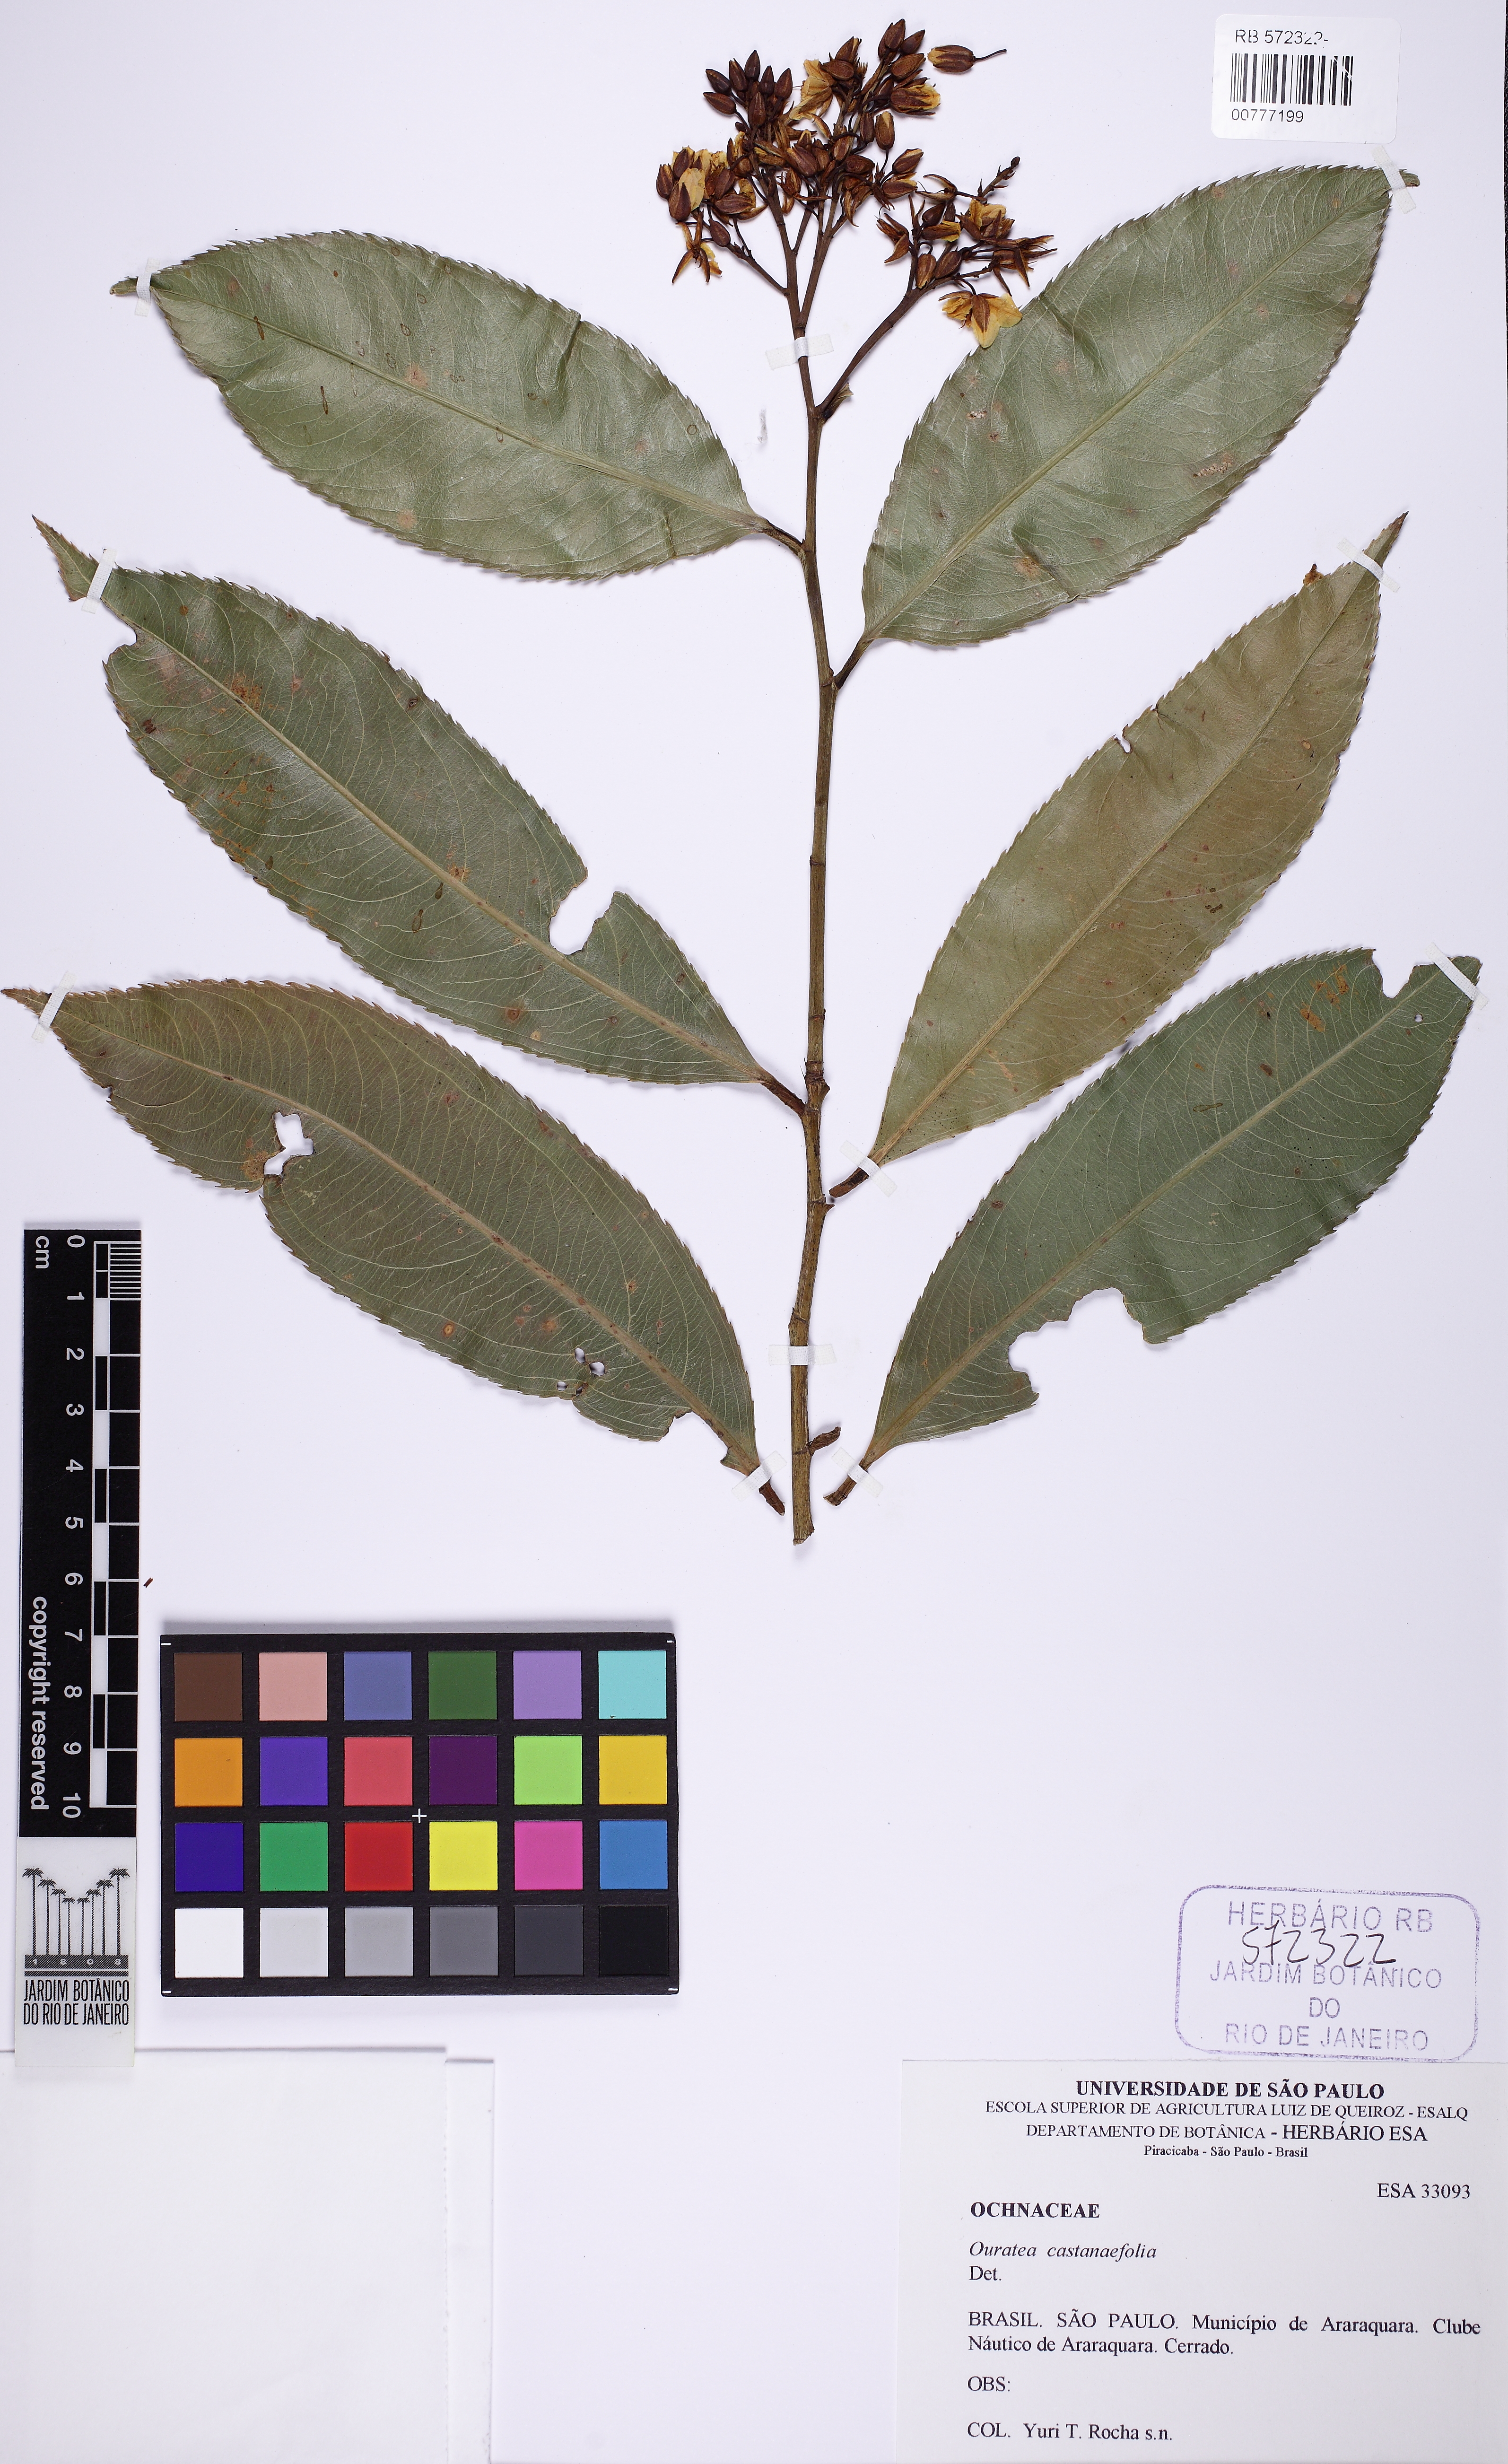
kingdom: Plantae
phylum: Tracheophyta
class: Magnoliopsida
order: Malpighiales
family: Ochnaceae
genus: Ouratea
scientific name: Ouratea castaneifolia
